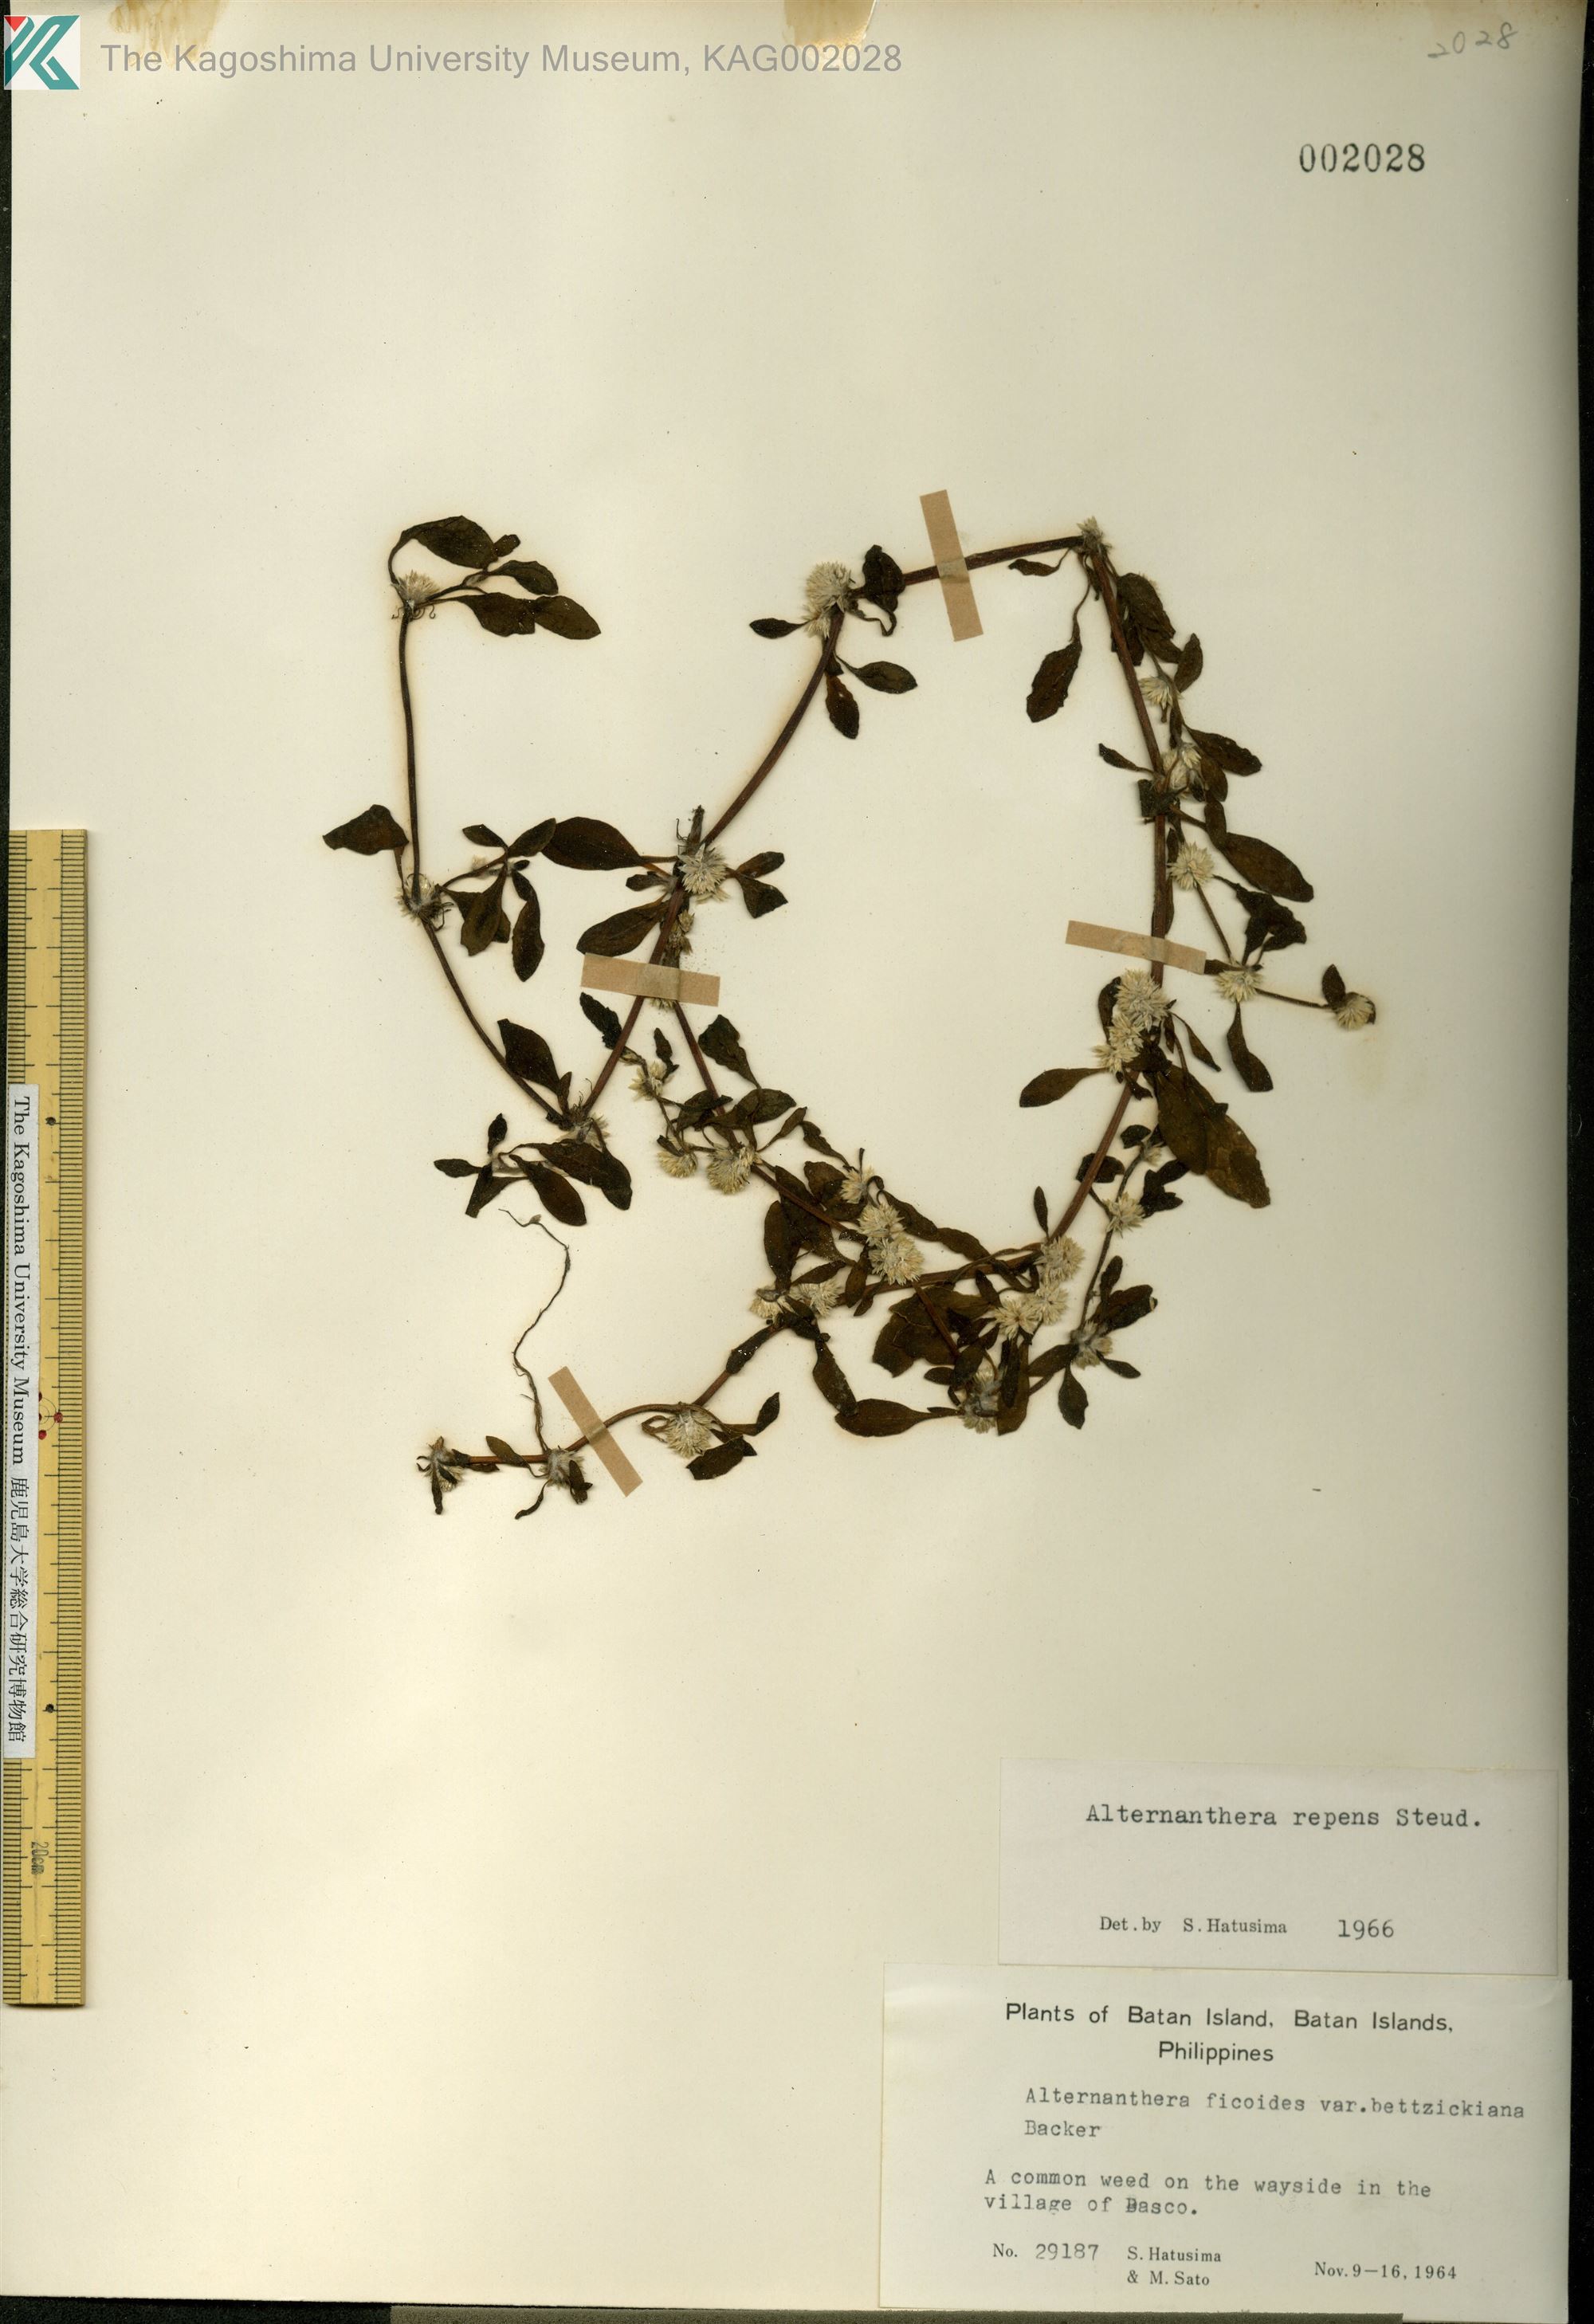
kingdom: Plantae
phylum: Tracheophyta
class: Magnoliopsida
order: Caryophyllales
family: Amaranthaceae
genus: Alternanthera
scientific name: Alternanthera pungens
